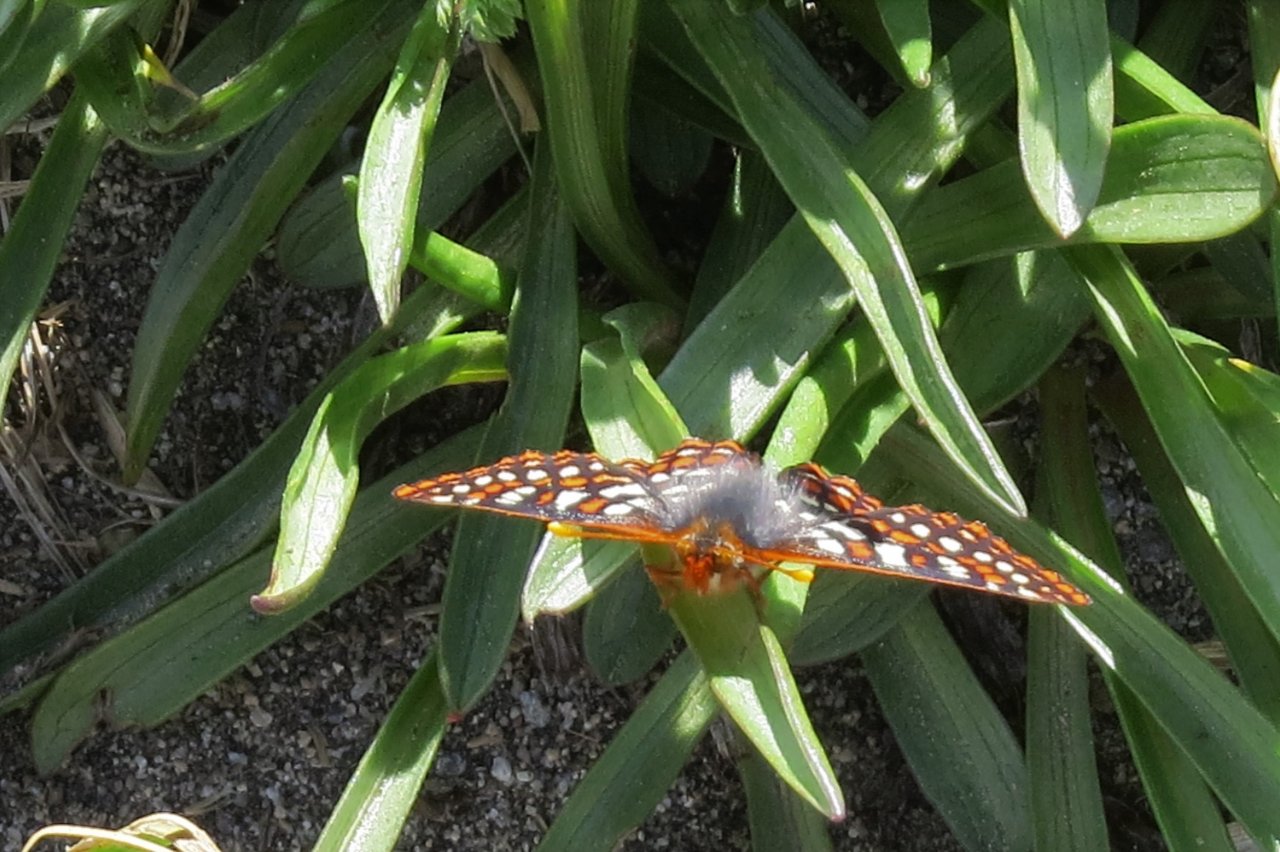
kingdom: Animalia
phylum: Arthropoda
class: Insecta
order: Lepidoptera
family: Nymphalidae
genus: Occidryas
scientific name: Occidryas editha
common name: Edith's Checkerspot
